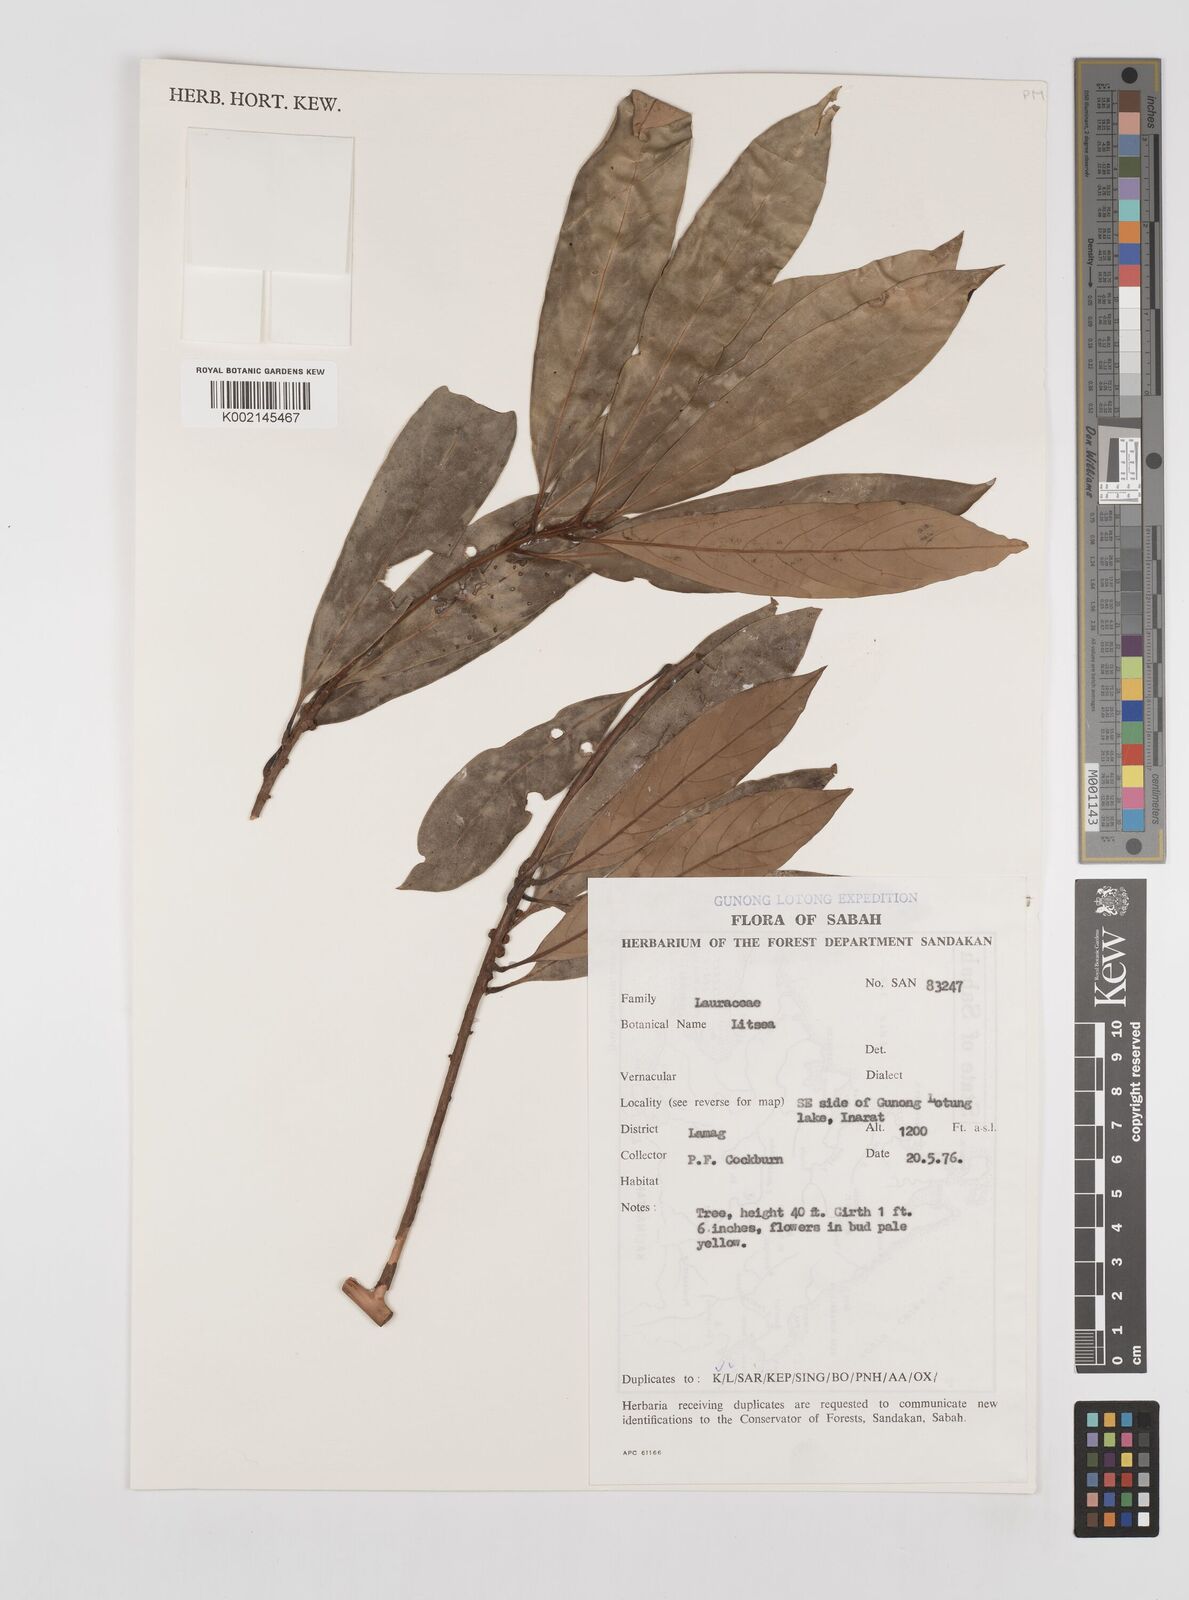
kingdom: Plantae
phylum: Tracheophyta
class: Magnoliopsida
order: Laurales
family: Lauraceae
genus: Litsea
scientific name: Litsea
